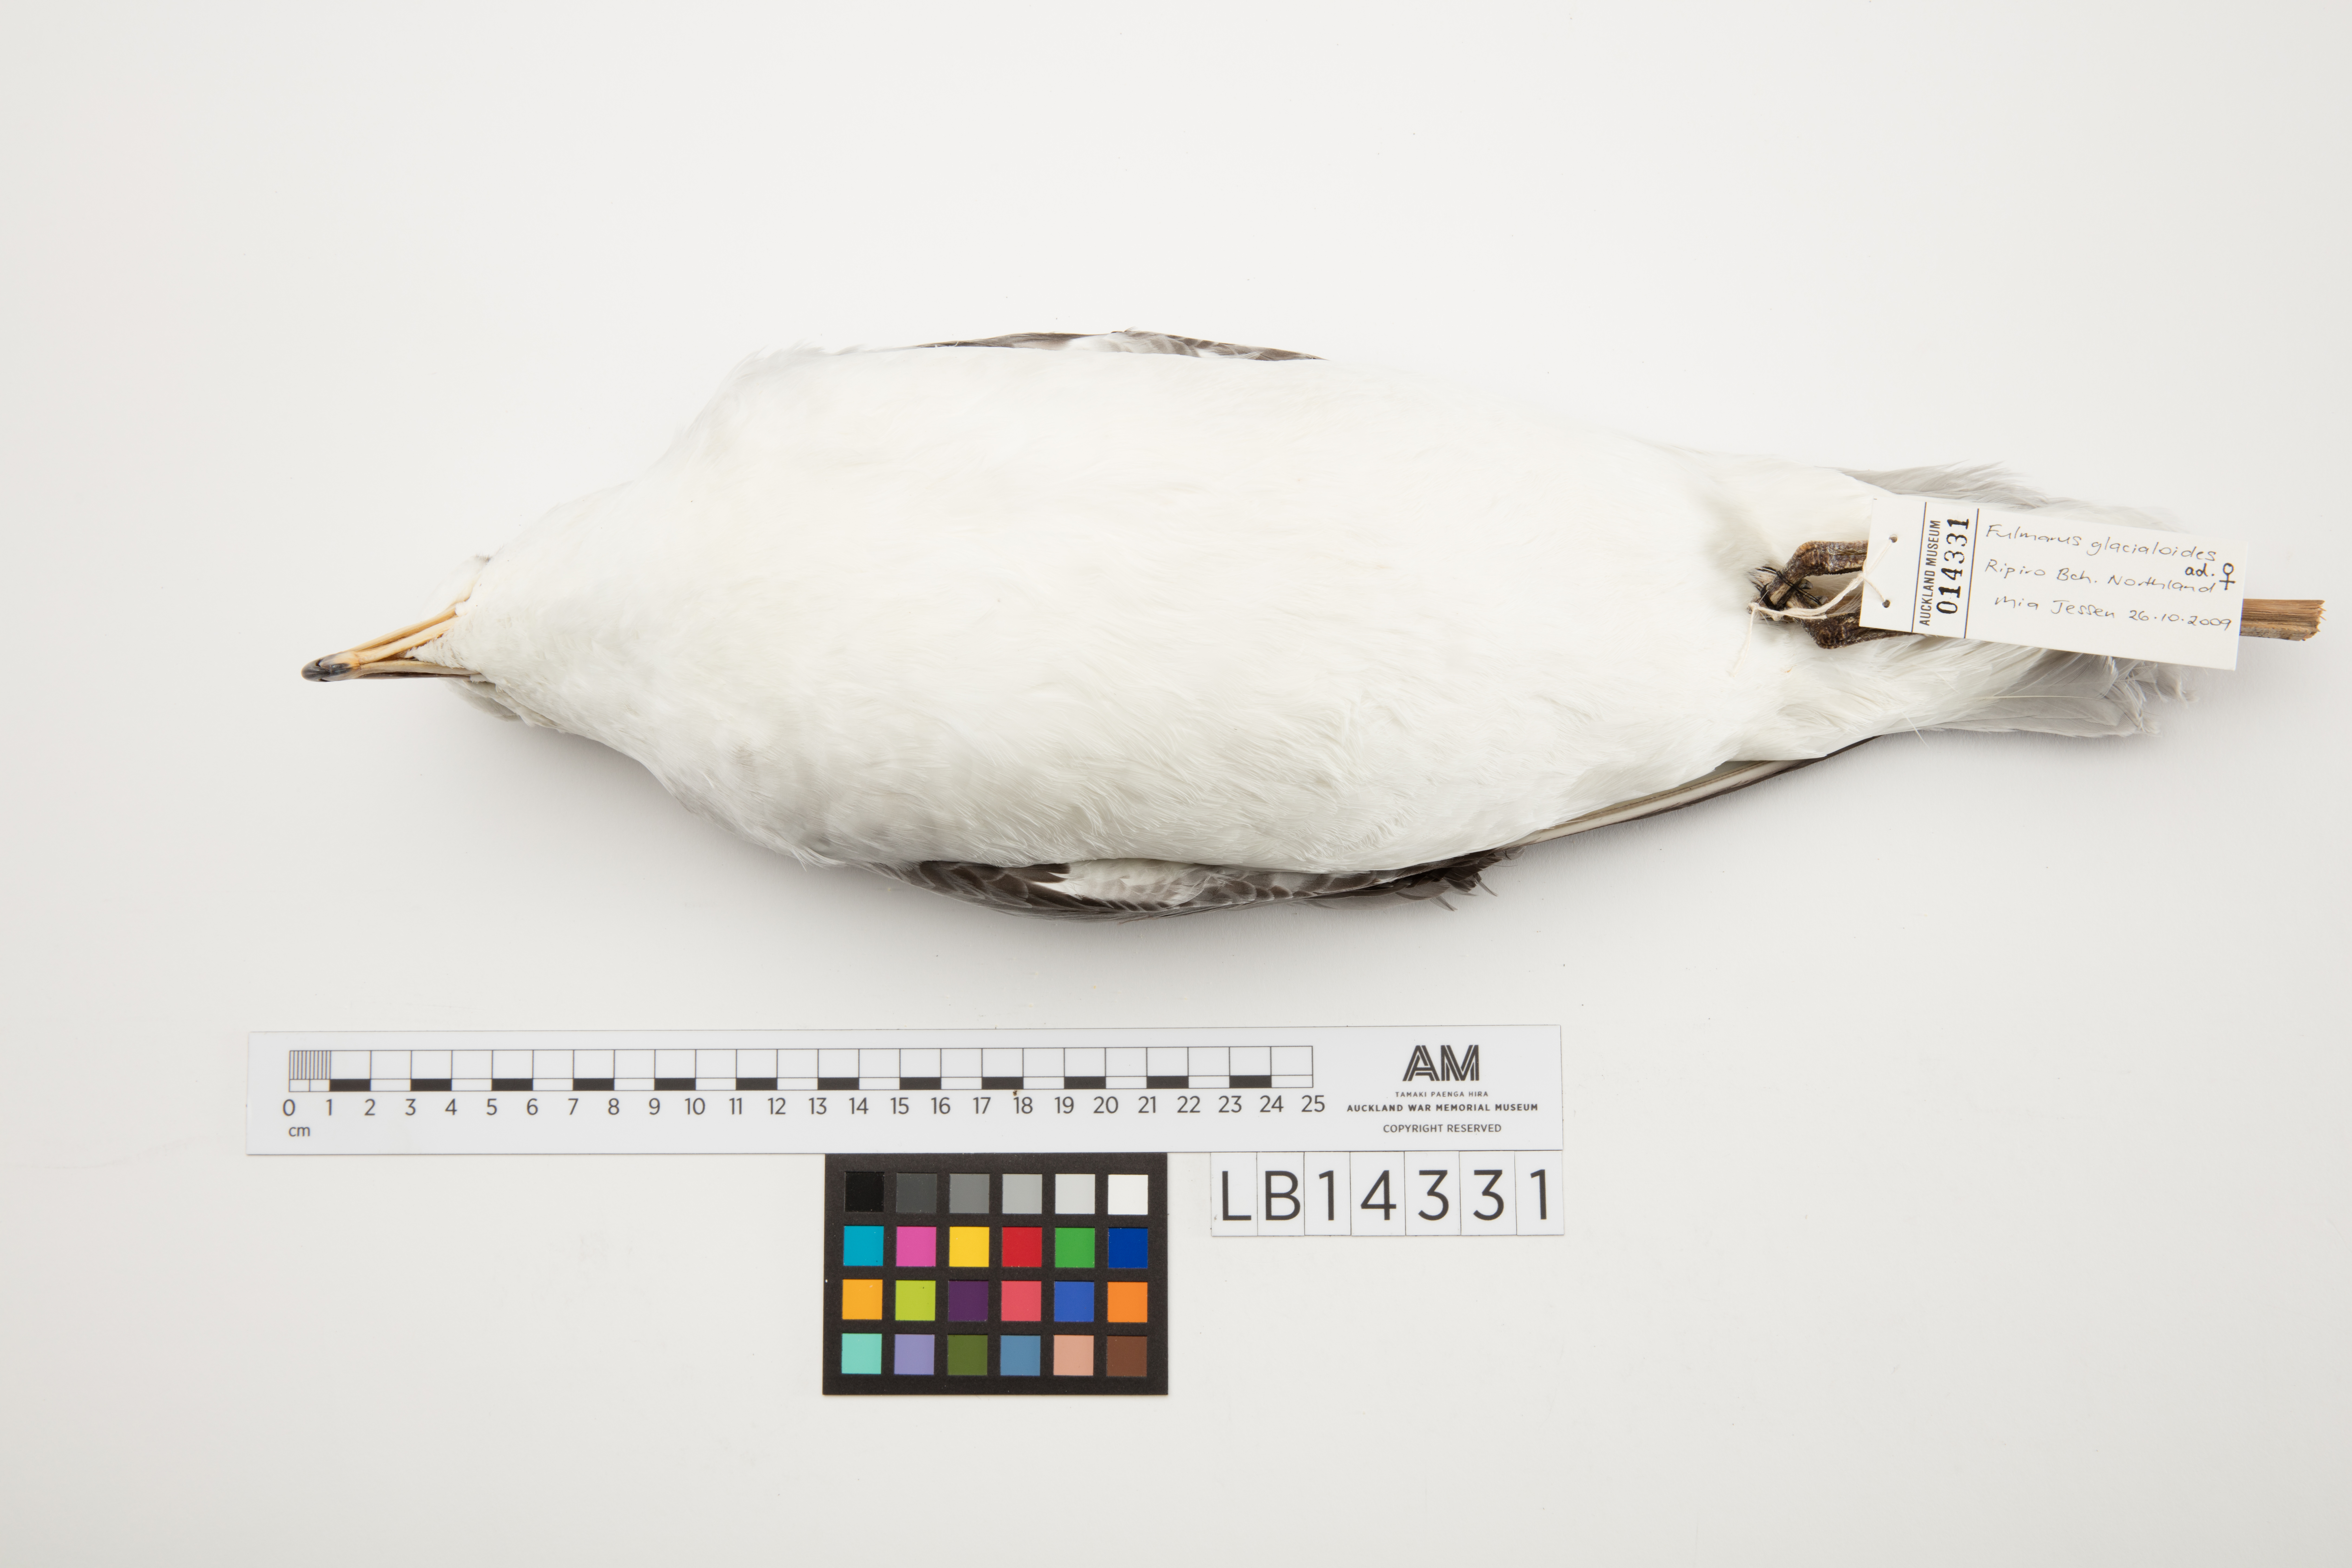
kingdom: Animalia
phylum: Chordata
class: Aves
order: Procellariiformes
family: Procellariidae
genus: Fulmarus
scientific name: Fulmarus glacialoides
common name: Southern fulmar
